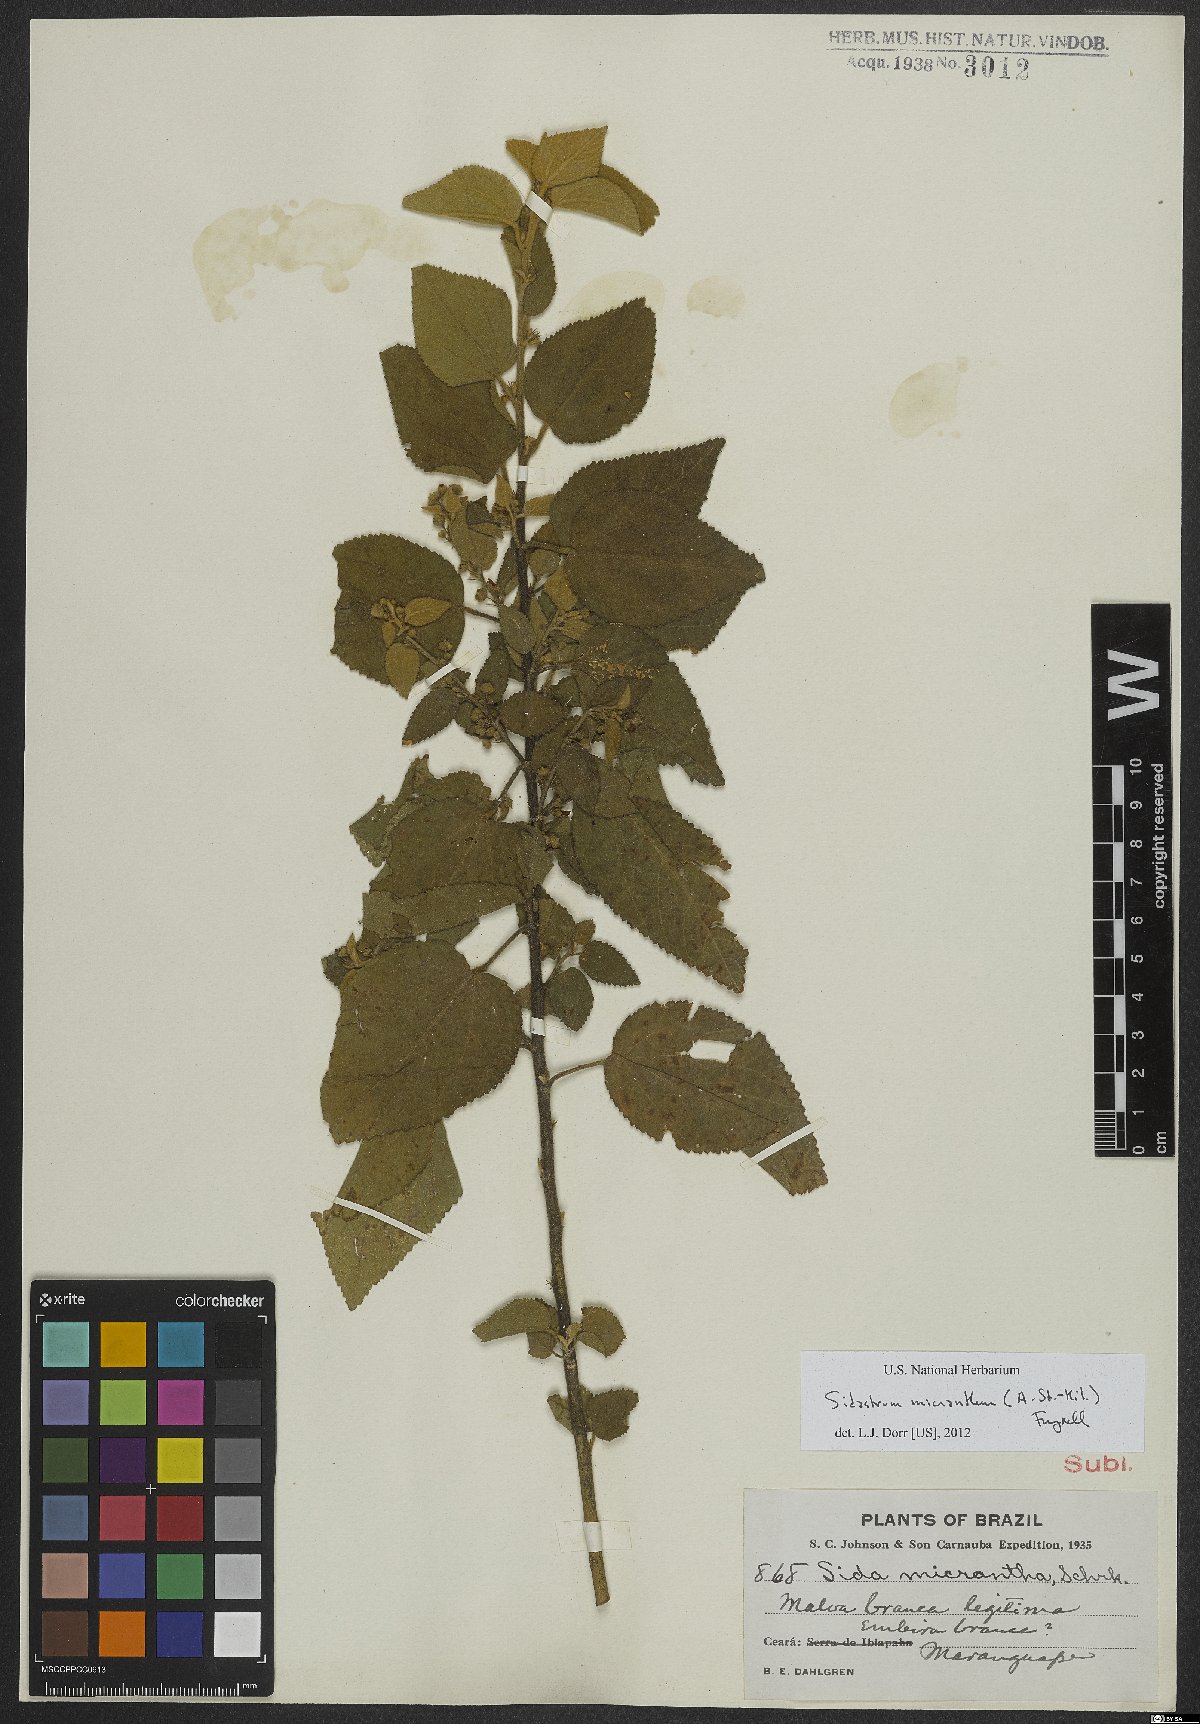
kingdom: Plantae
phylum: Tracheophyta
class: Magnoliopsida
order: Malvales
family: Malvaceae
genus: Sidastrum
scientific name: Sidastrum micranthum
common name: Dainty sandmallow
